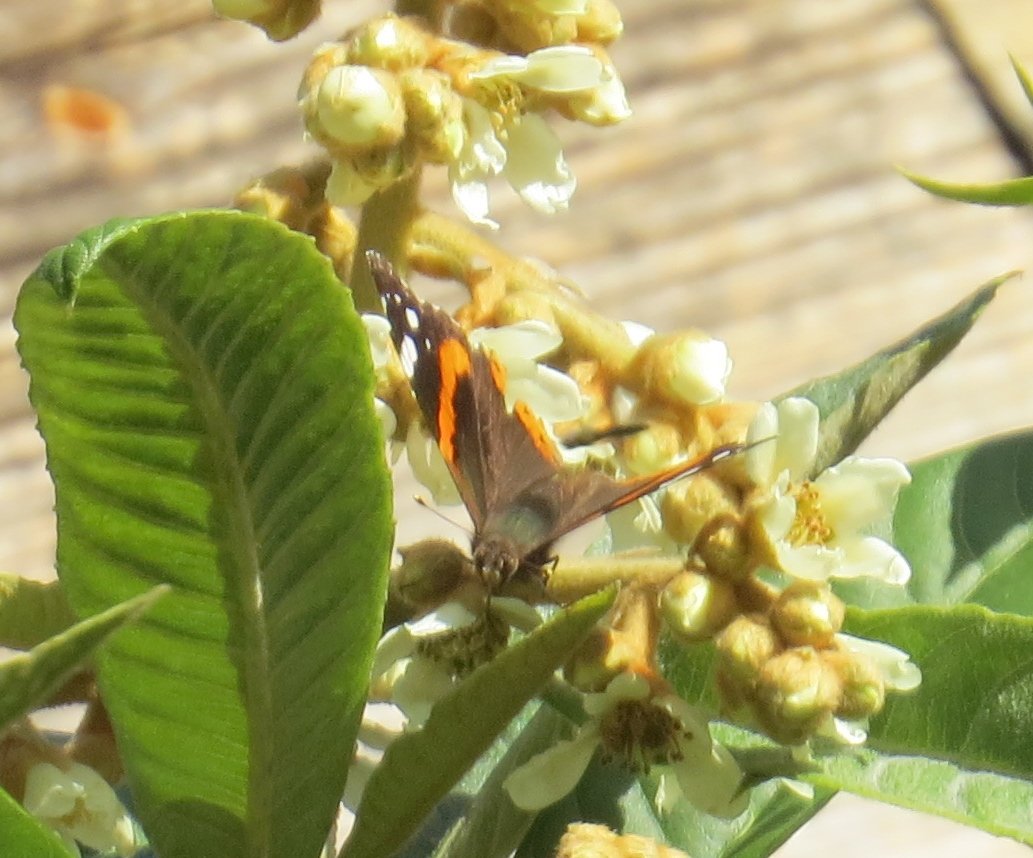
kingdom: Animalia
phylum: Arthropoda
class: Insecta
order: Lepidoptera
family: Nymphalidae
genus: Vanessa
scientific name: Vanessa atalanta
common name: Red Admiral
